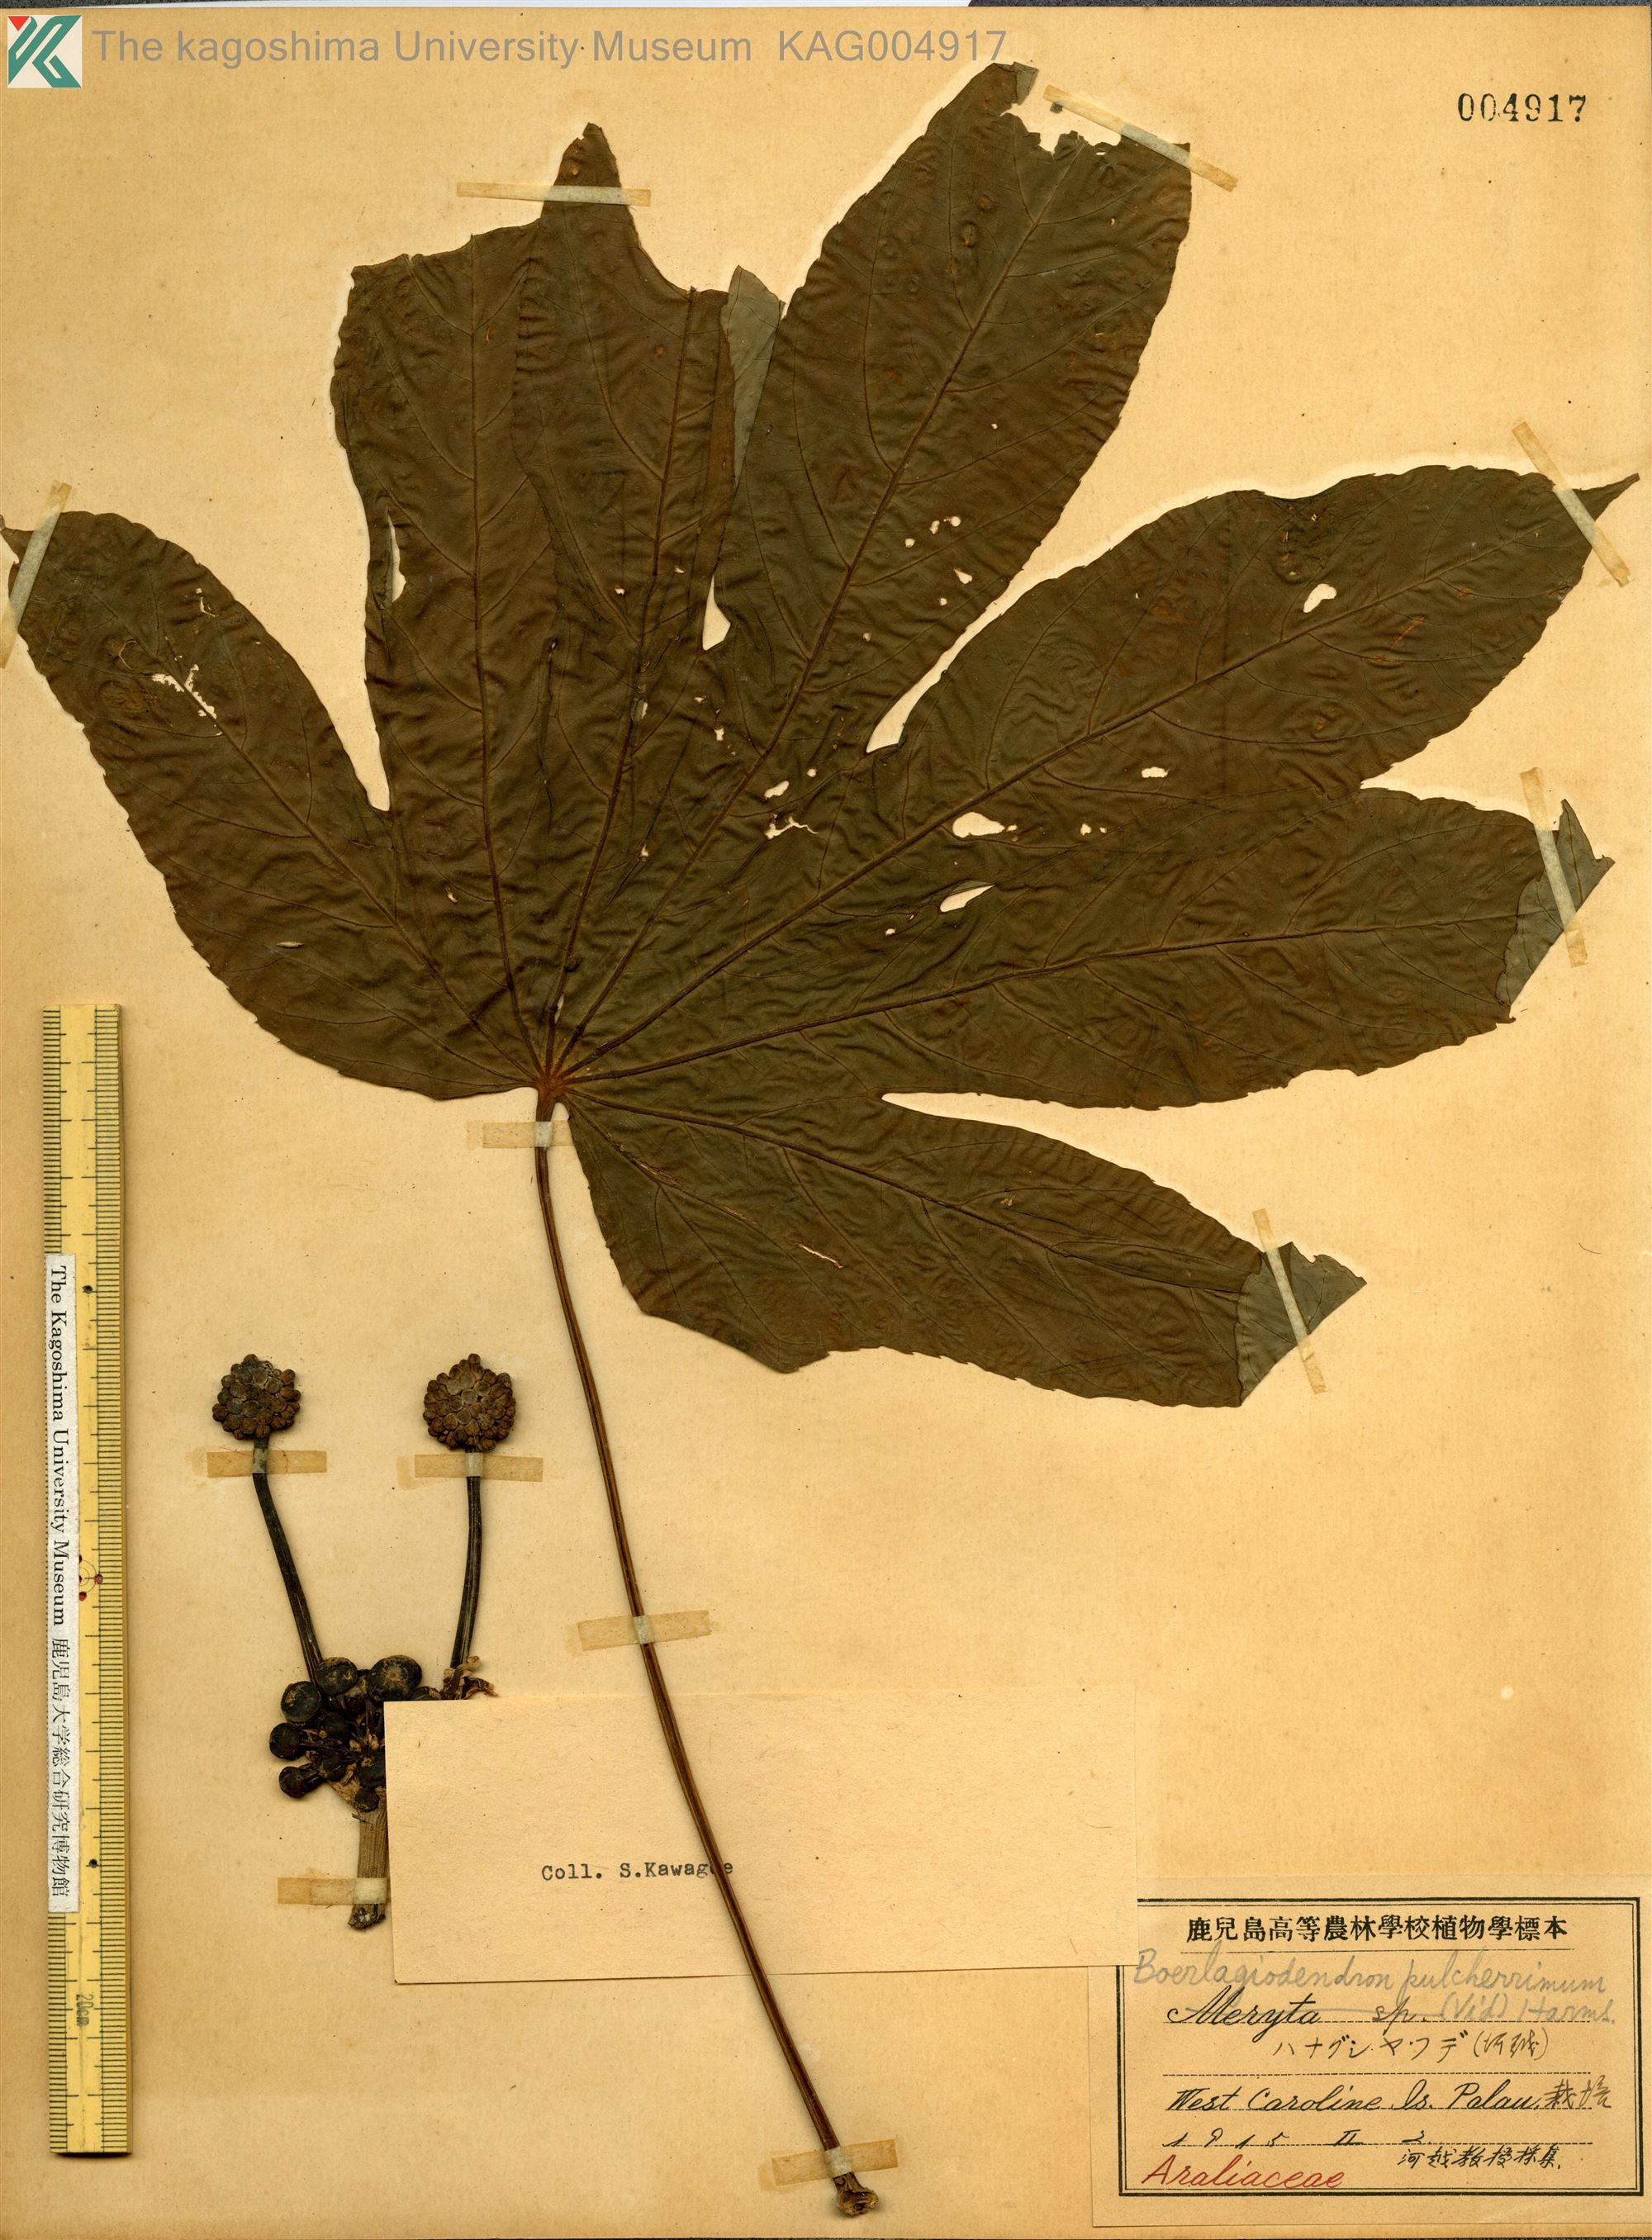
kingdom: Plantae
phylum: Tracheophyta
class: Magnoliopsida
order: Apiales
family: Araliaceae
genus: Osmoxylon
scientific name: Osmoxylon pulcherrimum
